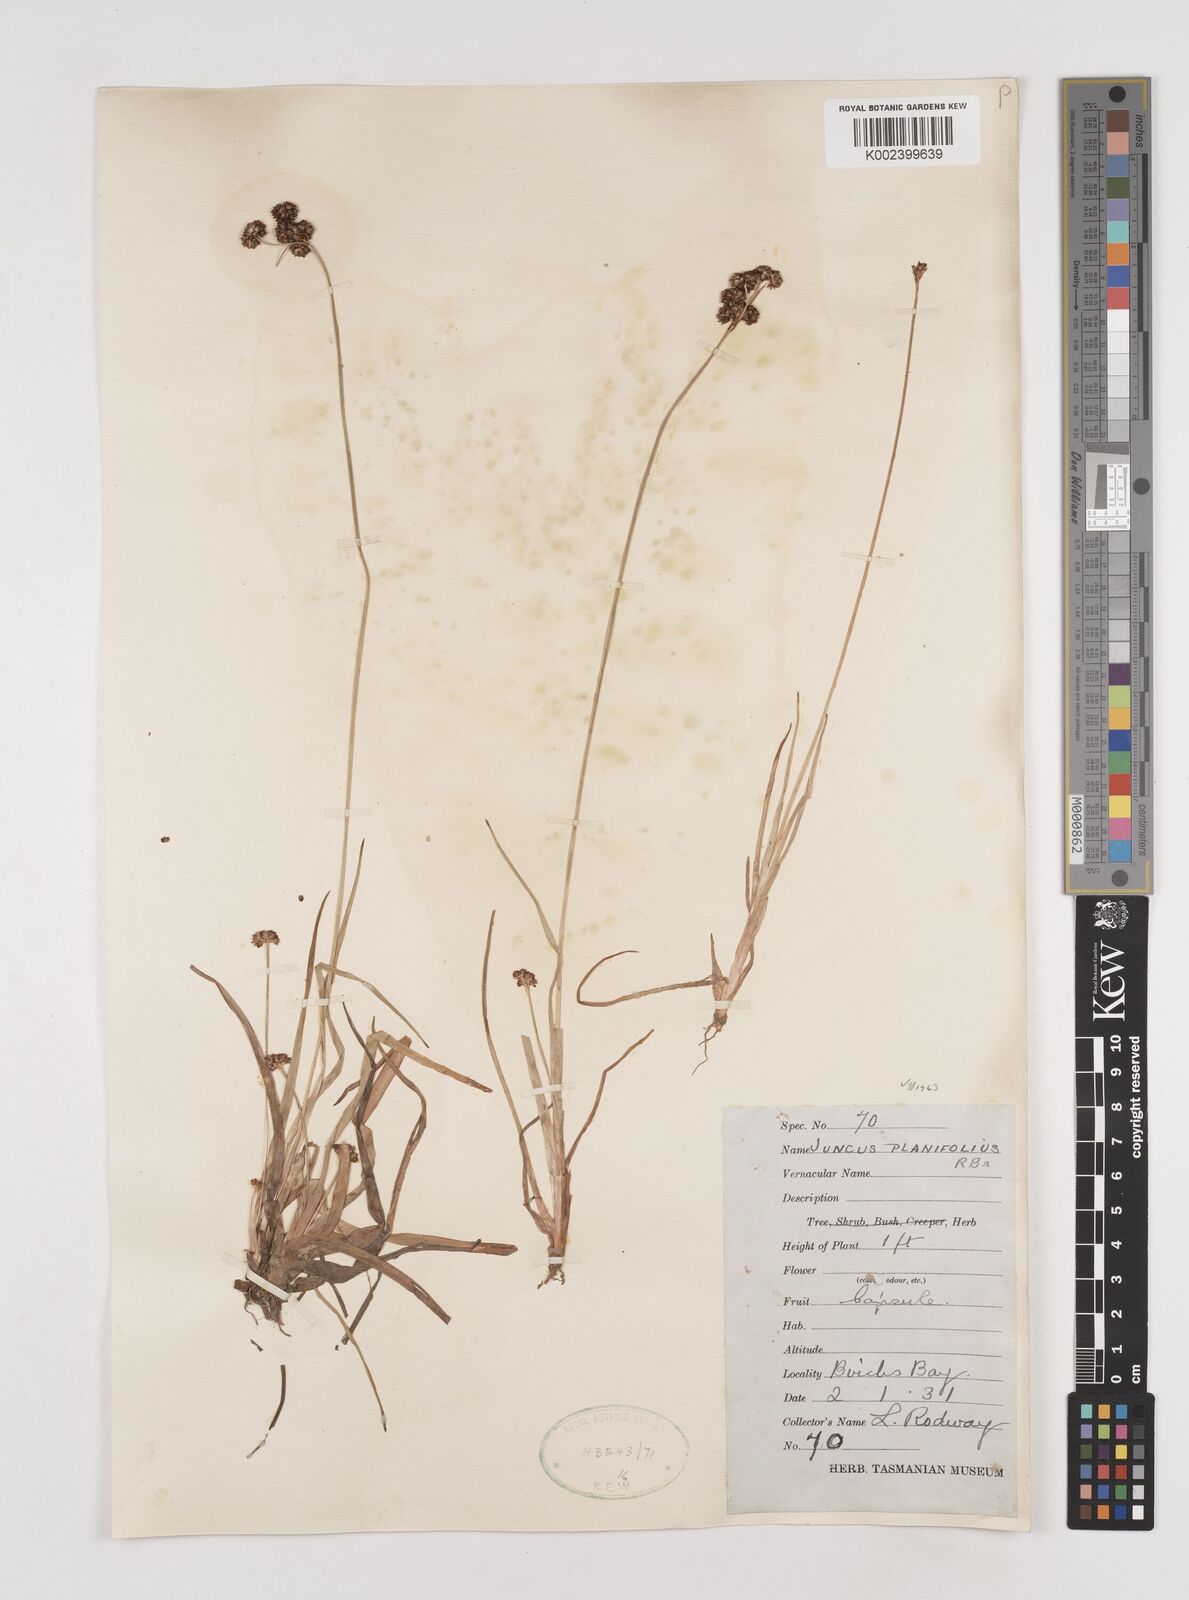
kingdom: Plantae
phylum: Tracheophyta
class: Liliopsida
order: Poales
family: Juncaceae
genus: Juncus
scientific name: Juncus planifolius
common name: Broadleaf rush
